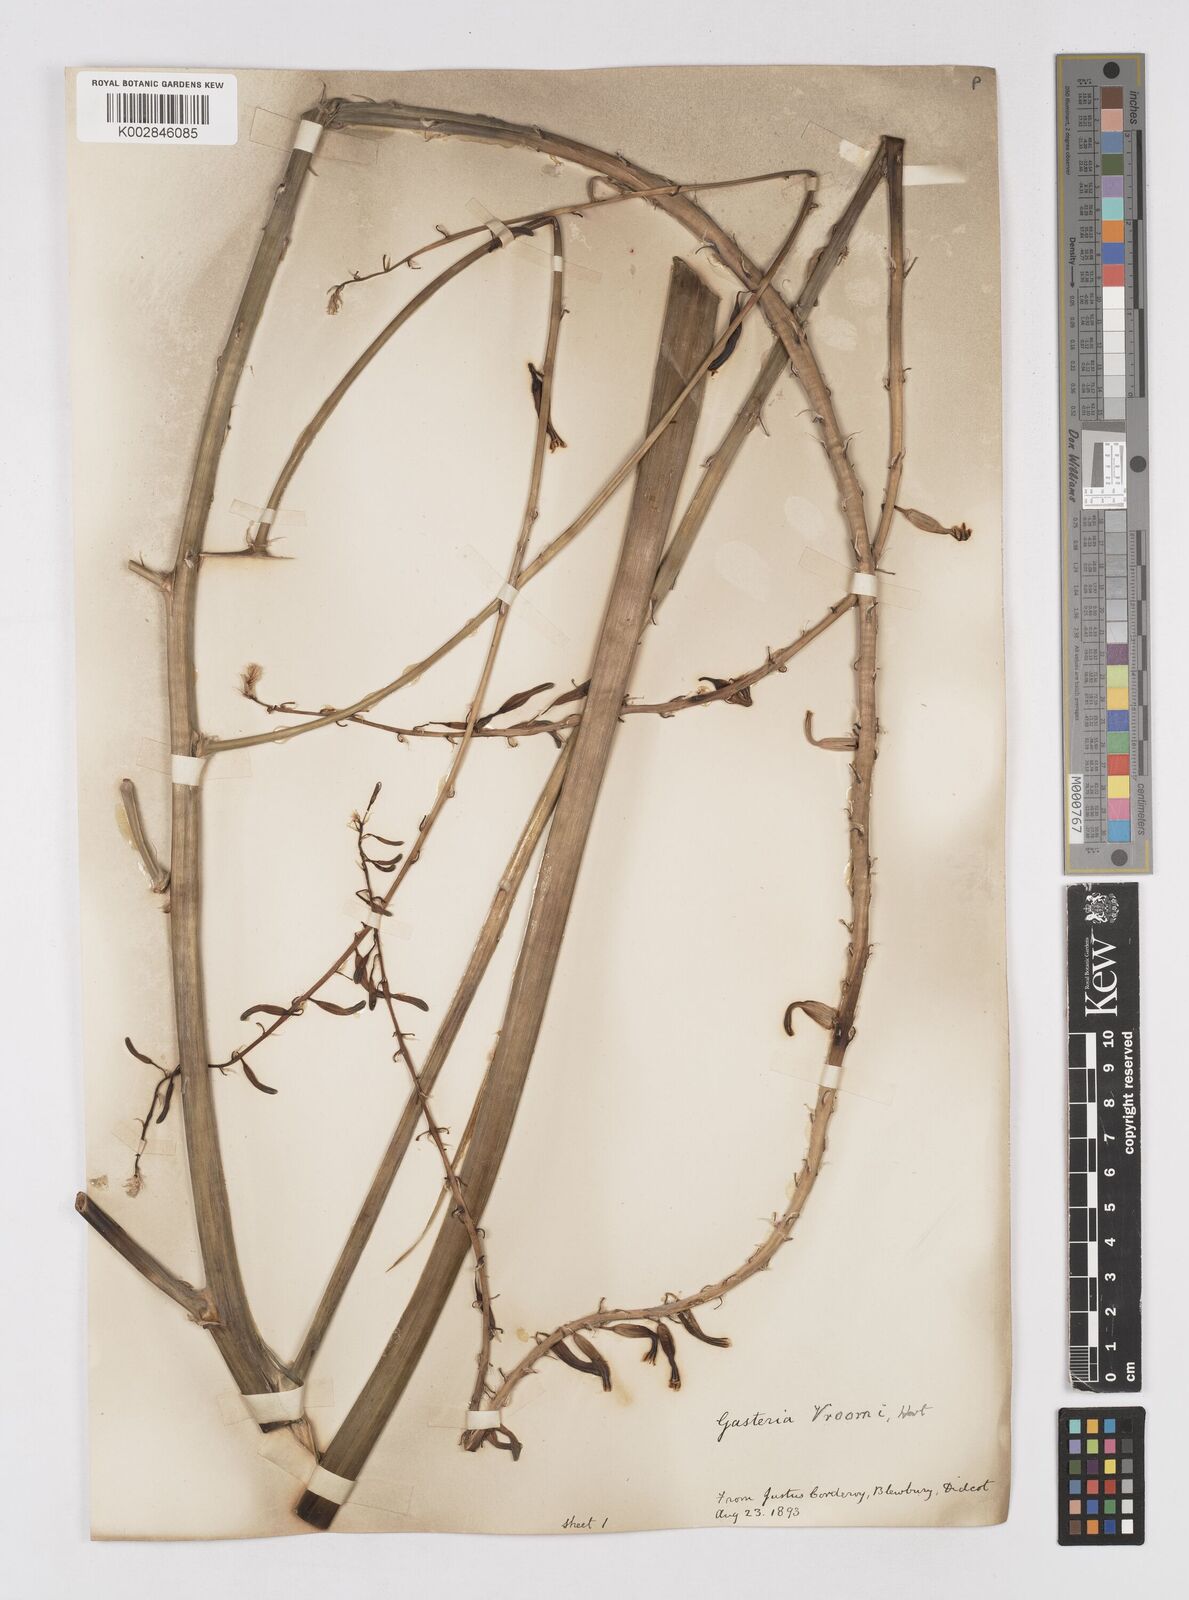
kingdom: Plantae
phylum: Tracheophyta
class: Liliopsida
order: Asparagales
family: Asphodelaceae
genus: Gasteria
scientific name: Gasteria
